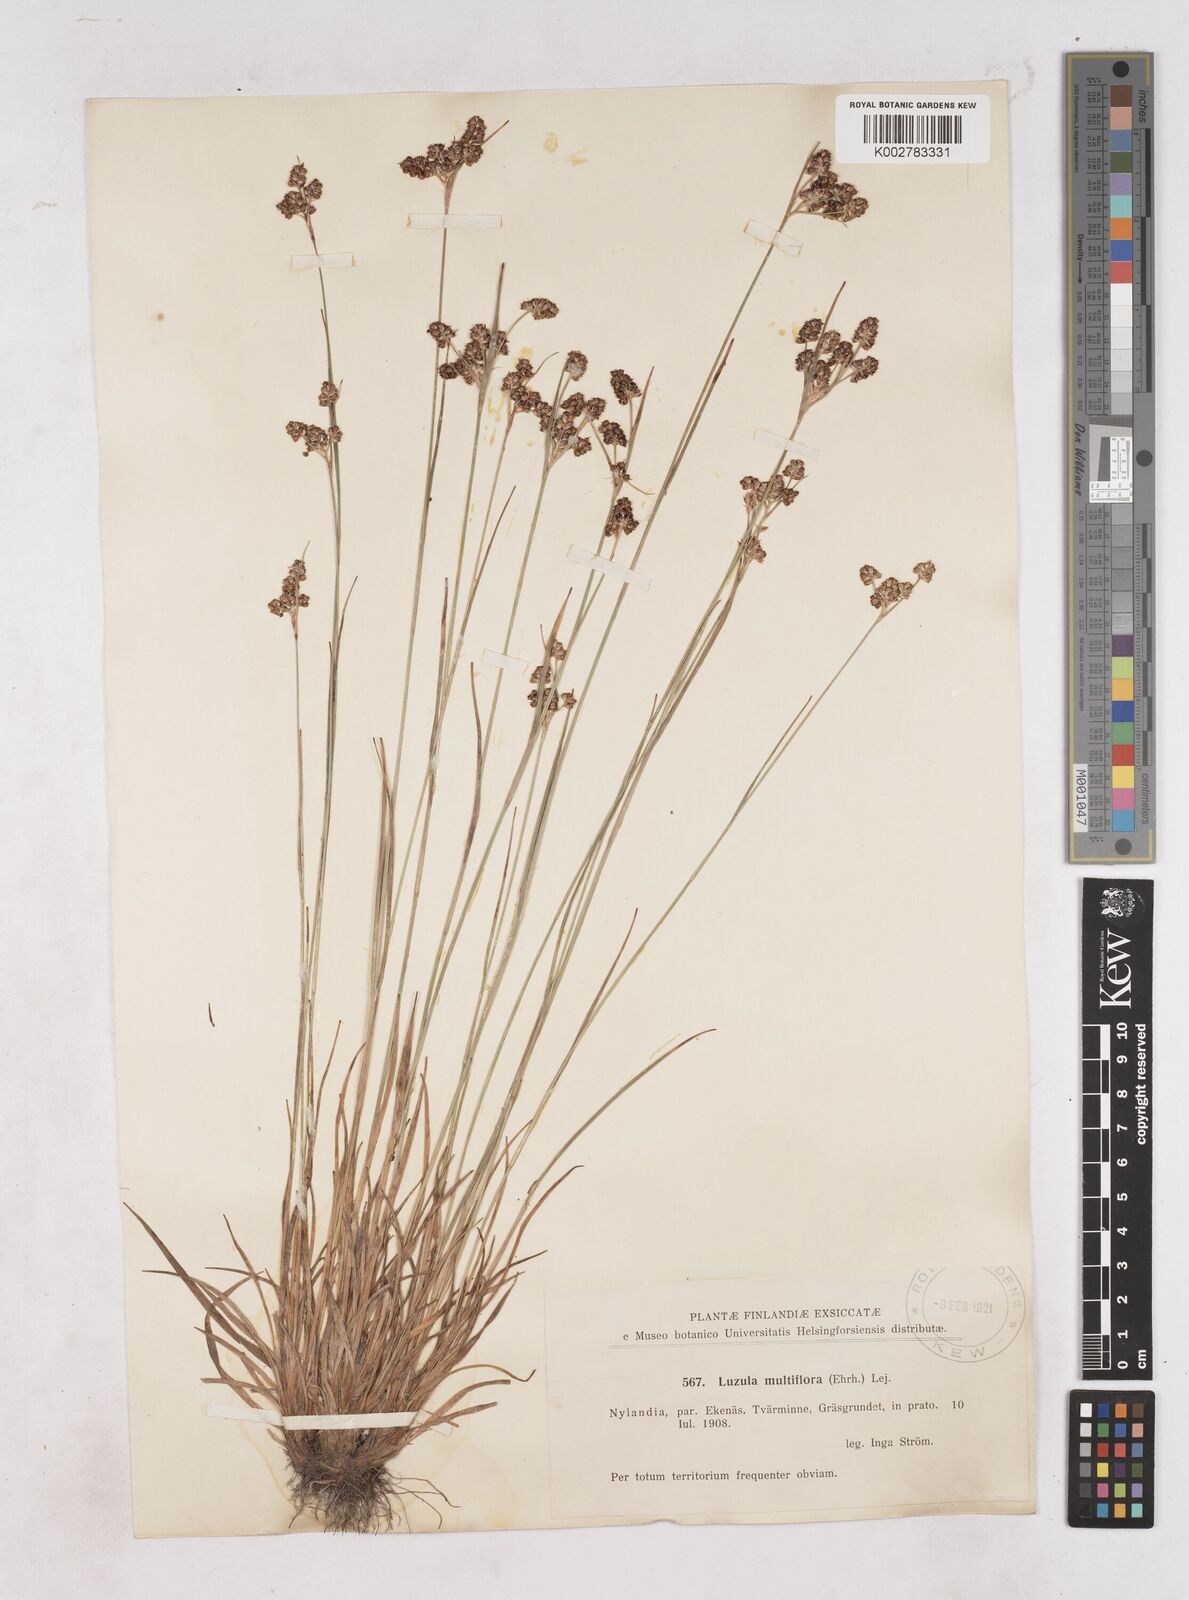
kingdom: Plantae
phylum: Tracheophyta
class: Liliopsida
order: Poales
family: Juncaceae
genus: Luzula
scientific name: Luzula multiflora
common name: Heath wood-rush
